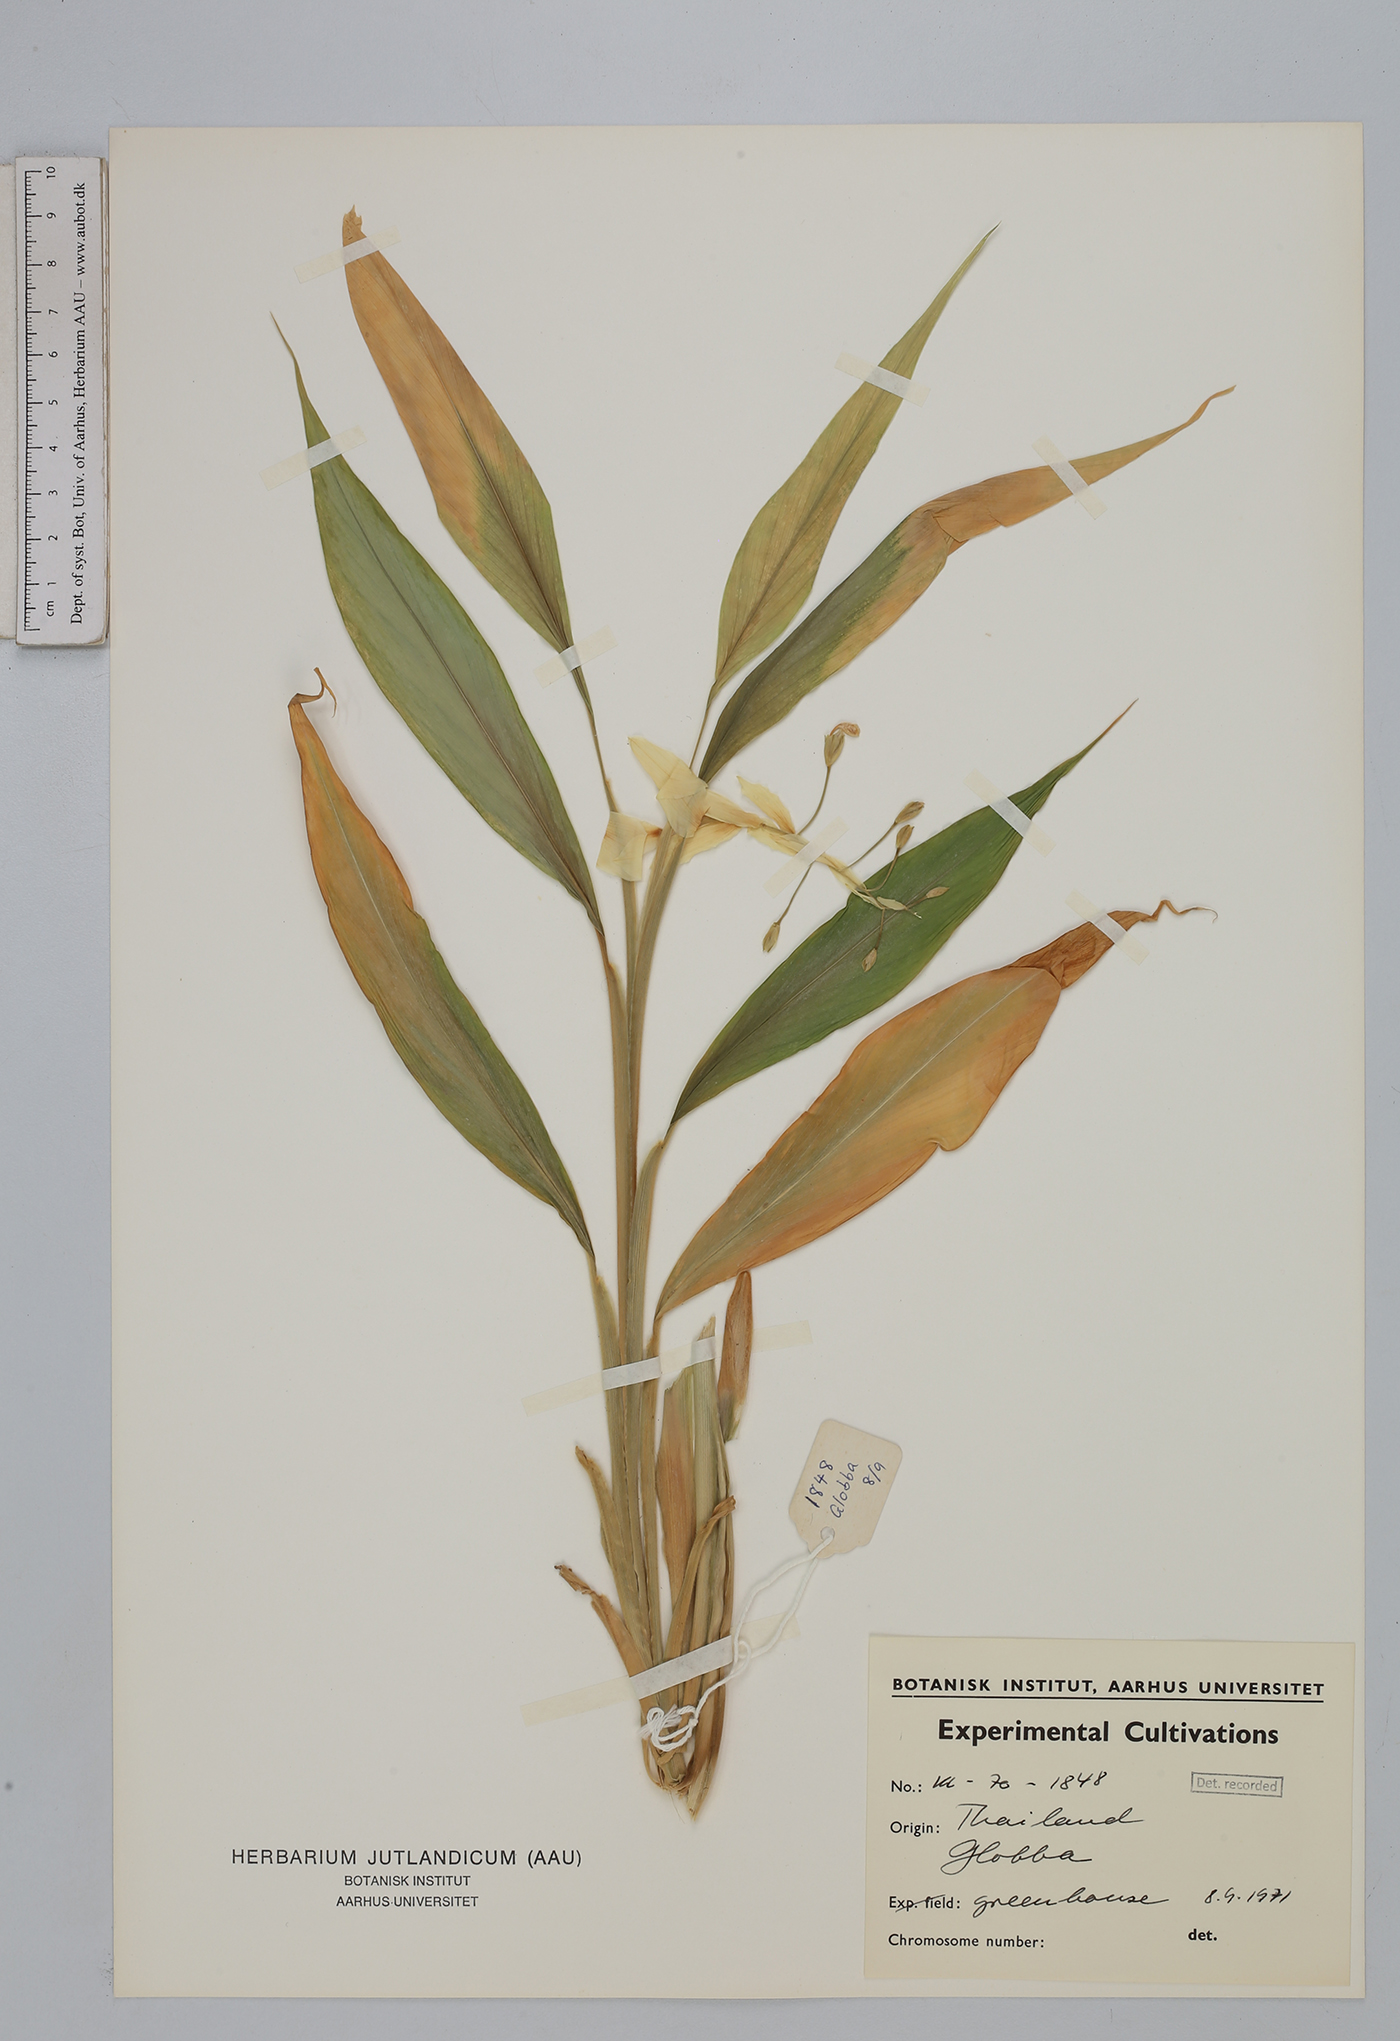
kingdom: Plantae
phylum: Tracheophyta
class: Liliopsida
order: Zingiberales
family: Zingiberaceae
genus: Globba
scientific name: Globba
